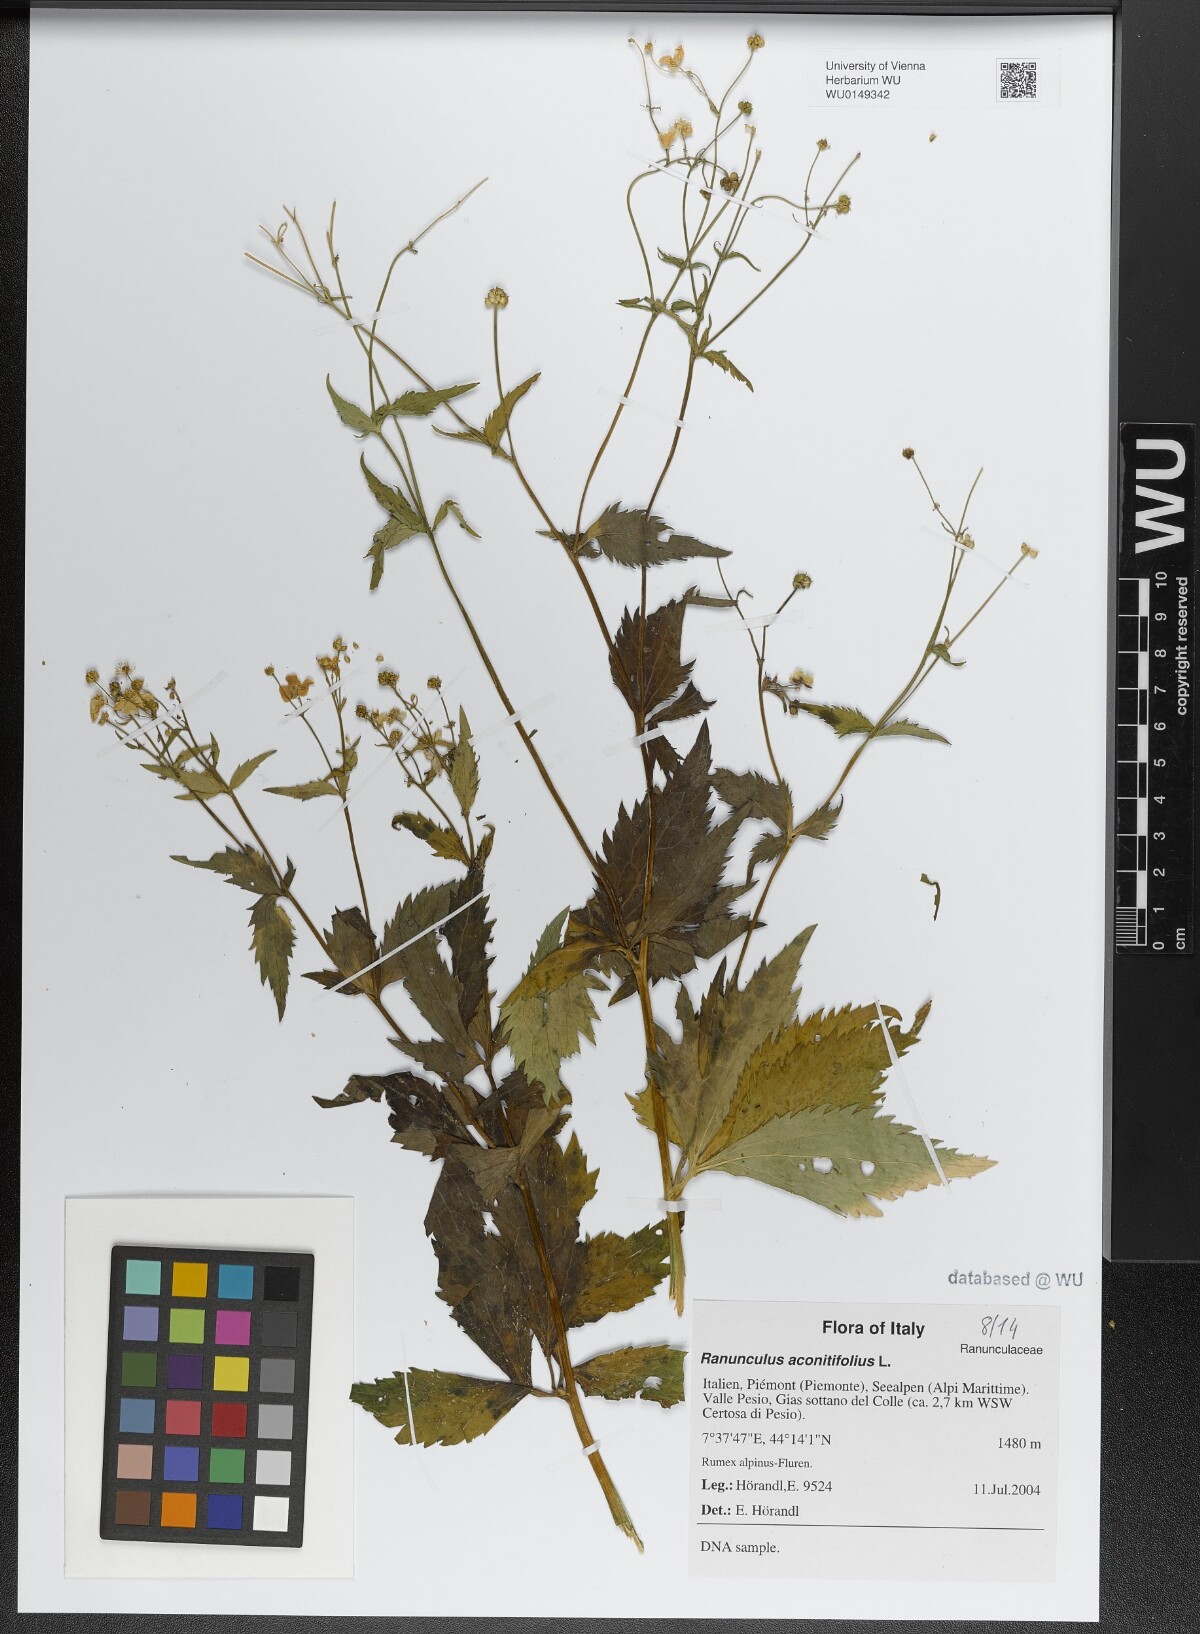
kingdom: Plantae
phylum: Tracheophyta
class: Magnoliopsida
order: Ranunculales
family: Ranunculaceae
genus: Ranunculus
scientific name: Ranunculus aconitifolius
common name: Aconite-leaved buttercup
